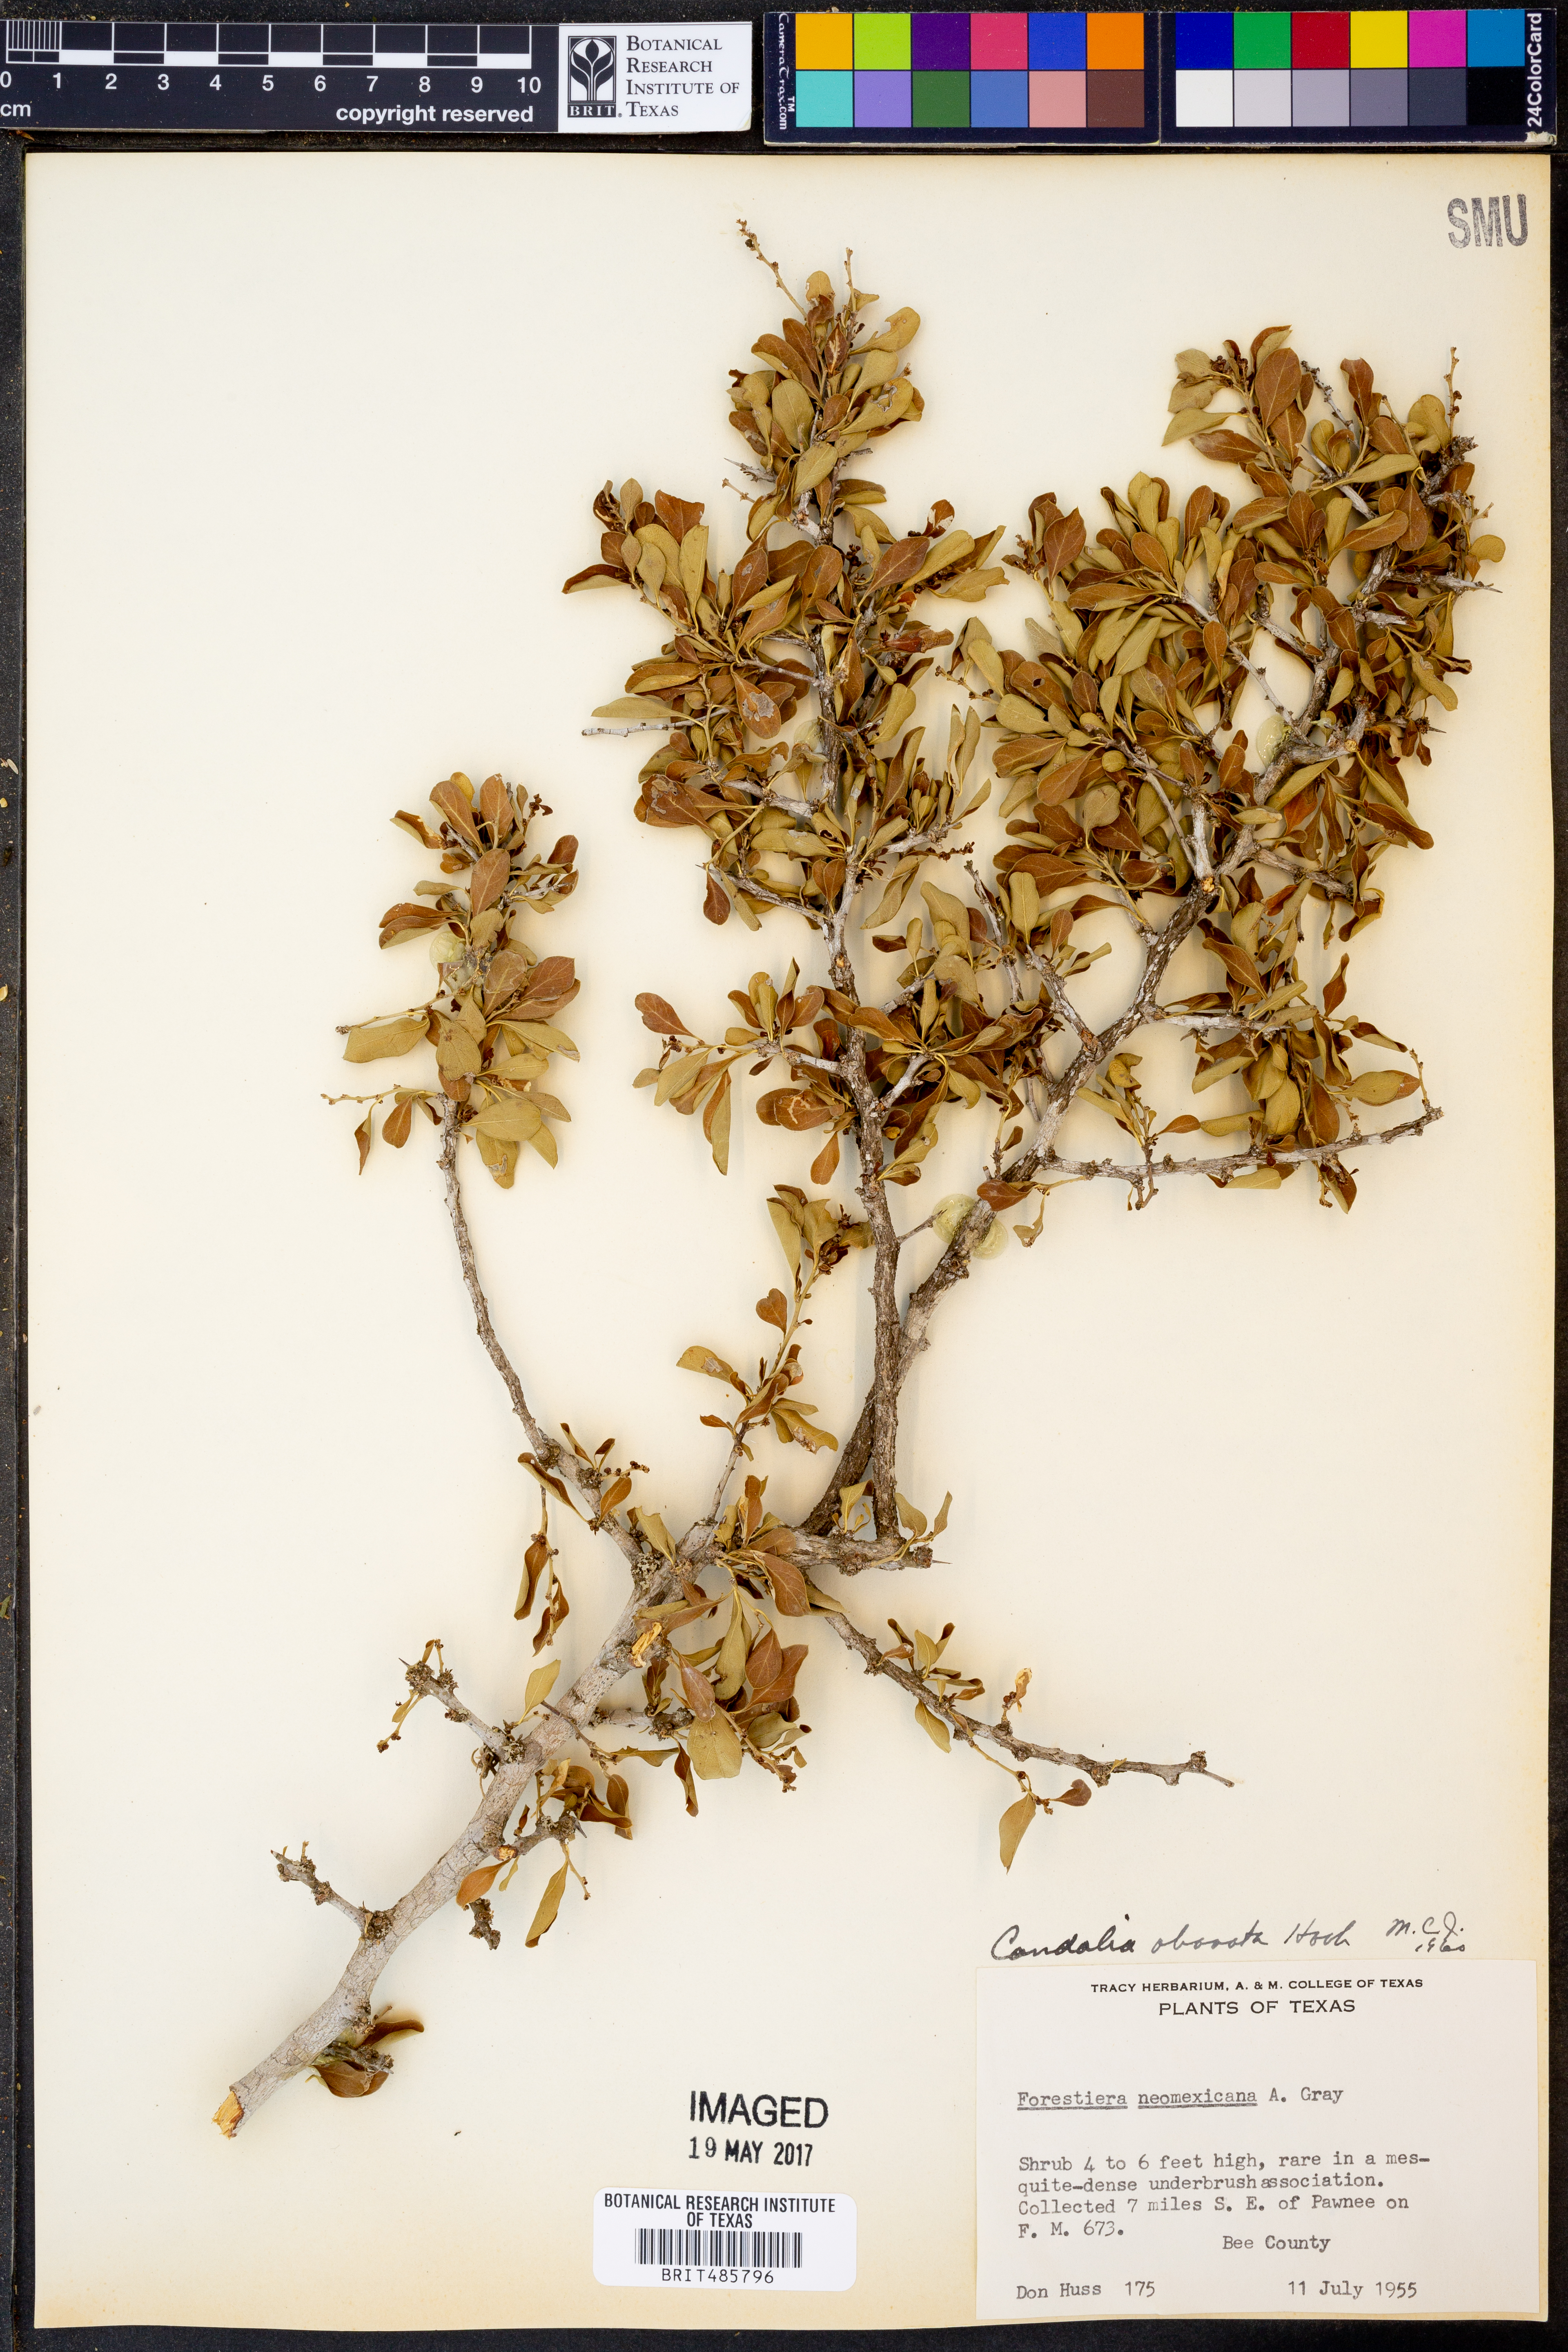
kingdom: Plantae
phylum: Tracheophyta
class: Magnoliopsida
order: Rosales
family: Rhamnaceae
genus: Condalia
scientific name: Condalia hookeri
